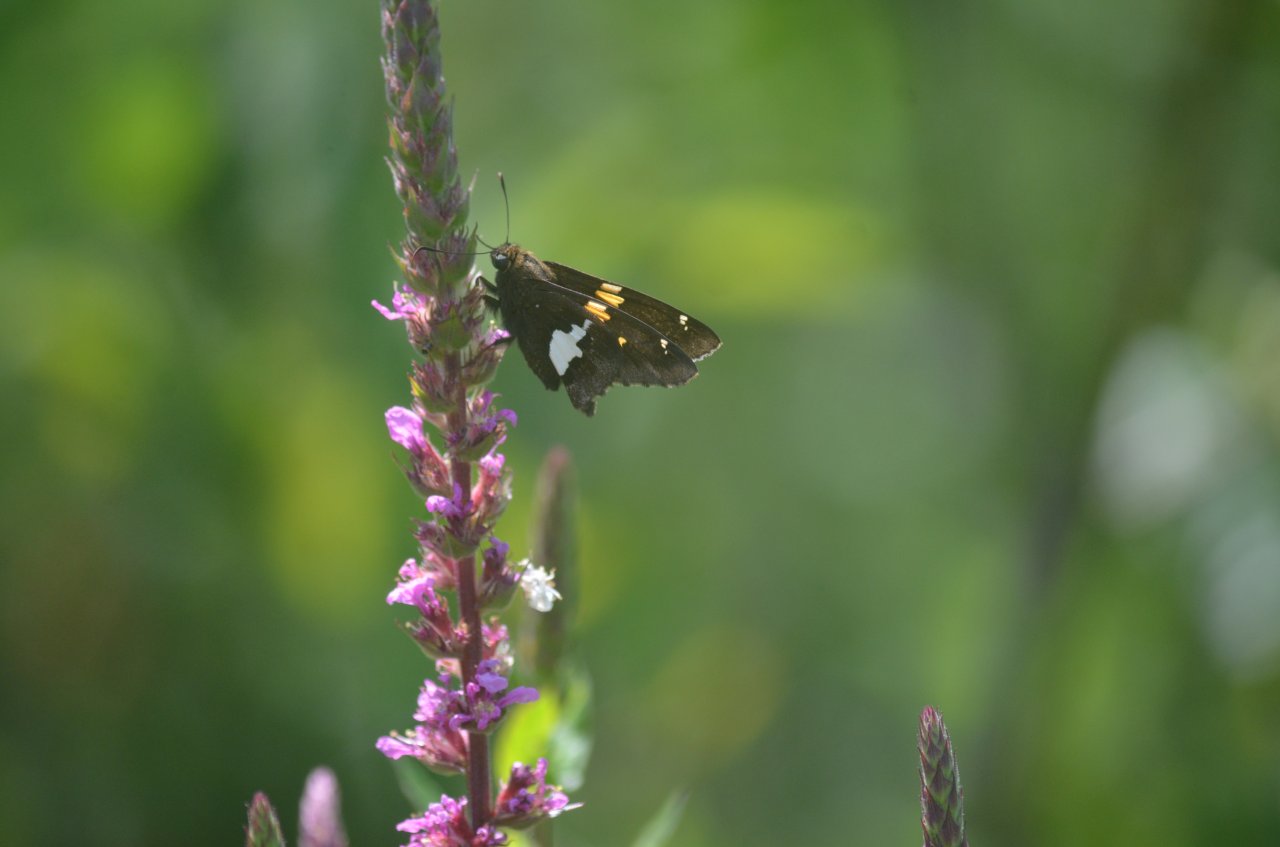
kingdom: Animalia
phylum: Arthropoda
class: Insecta
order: Lepidoptera
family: Hesperiidae
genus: Epargyreus
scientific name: Epargyreus clarus
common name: Silver-spotted Skipper
